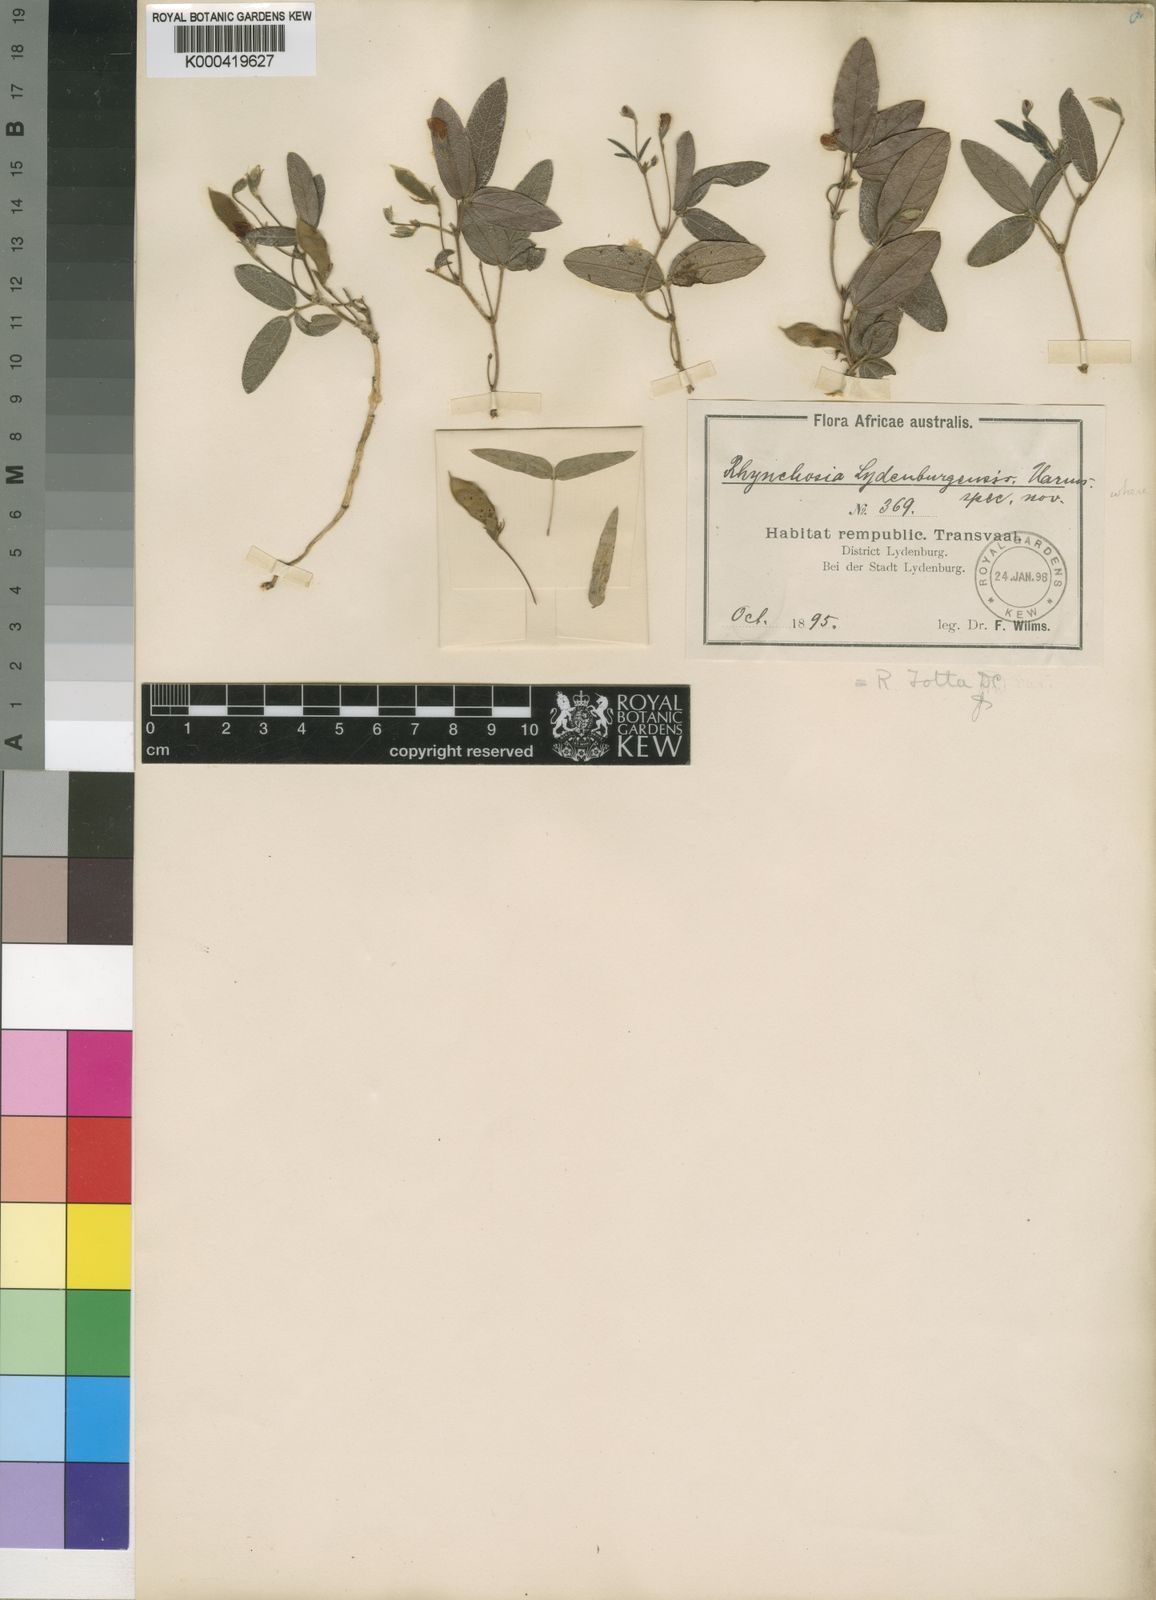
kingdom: Plantae
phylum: Tracheophyta
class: Magnoliopsida
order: Fabales
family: Fabaceae
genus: Rhynchosia
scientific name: Rhynchosia totta
